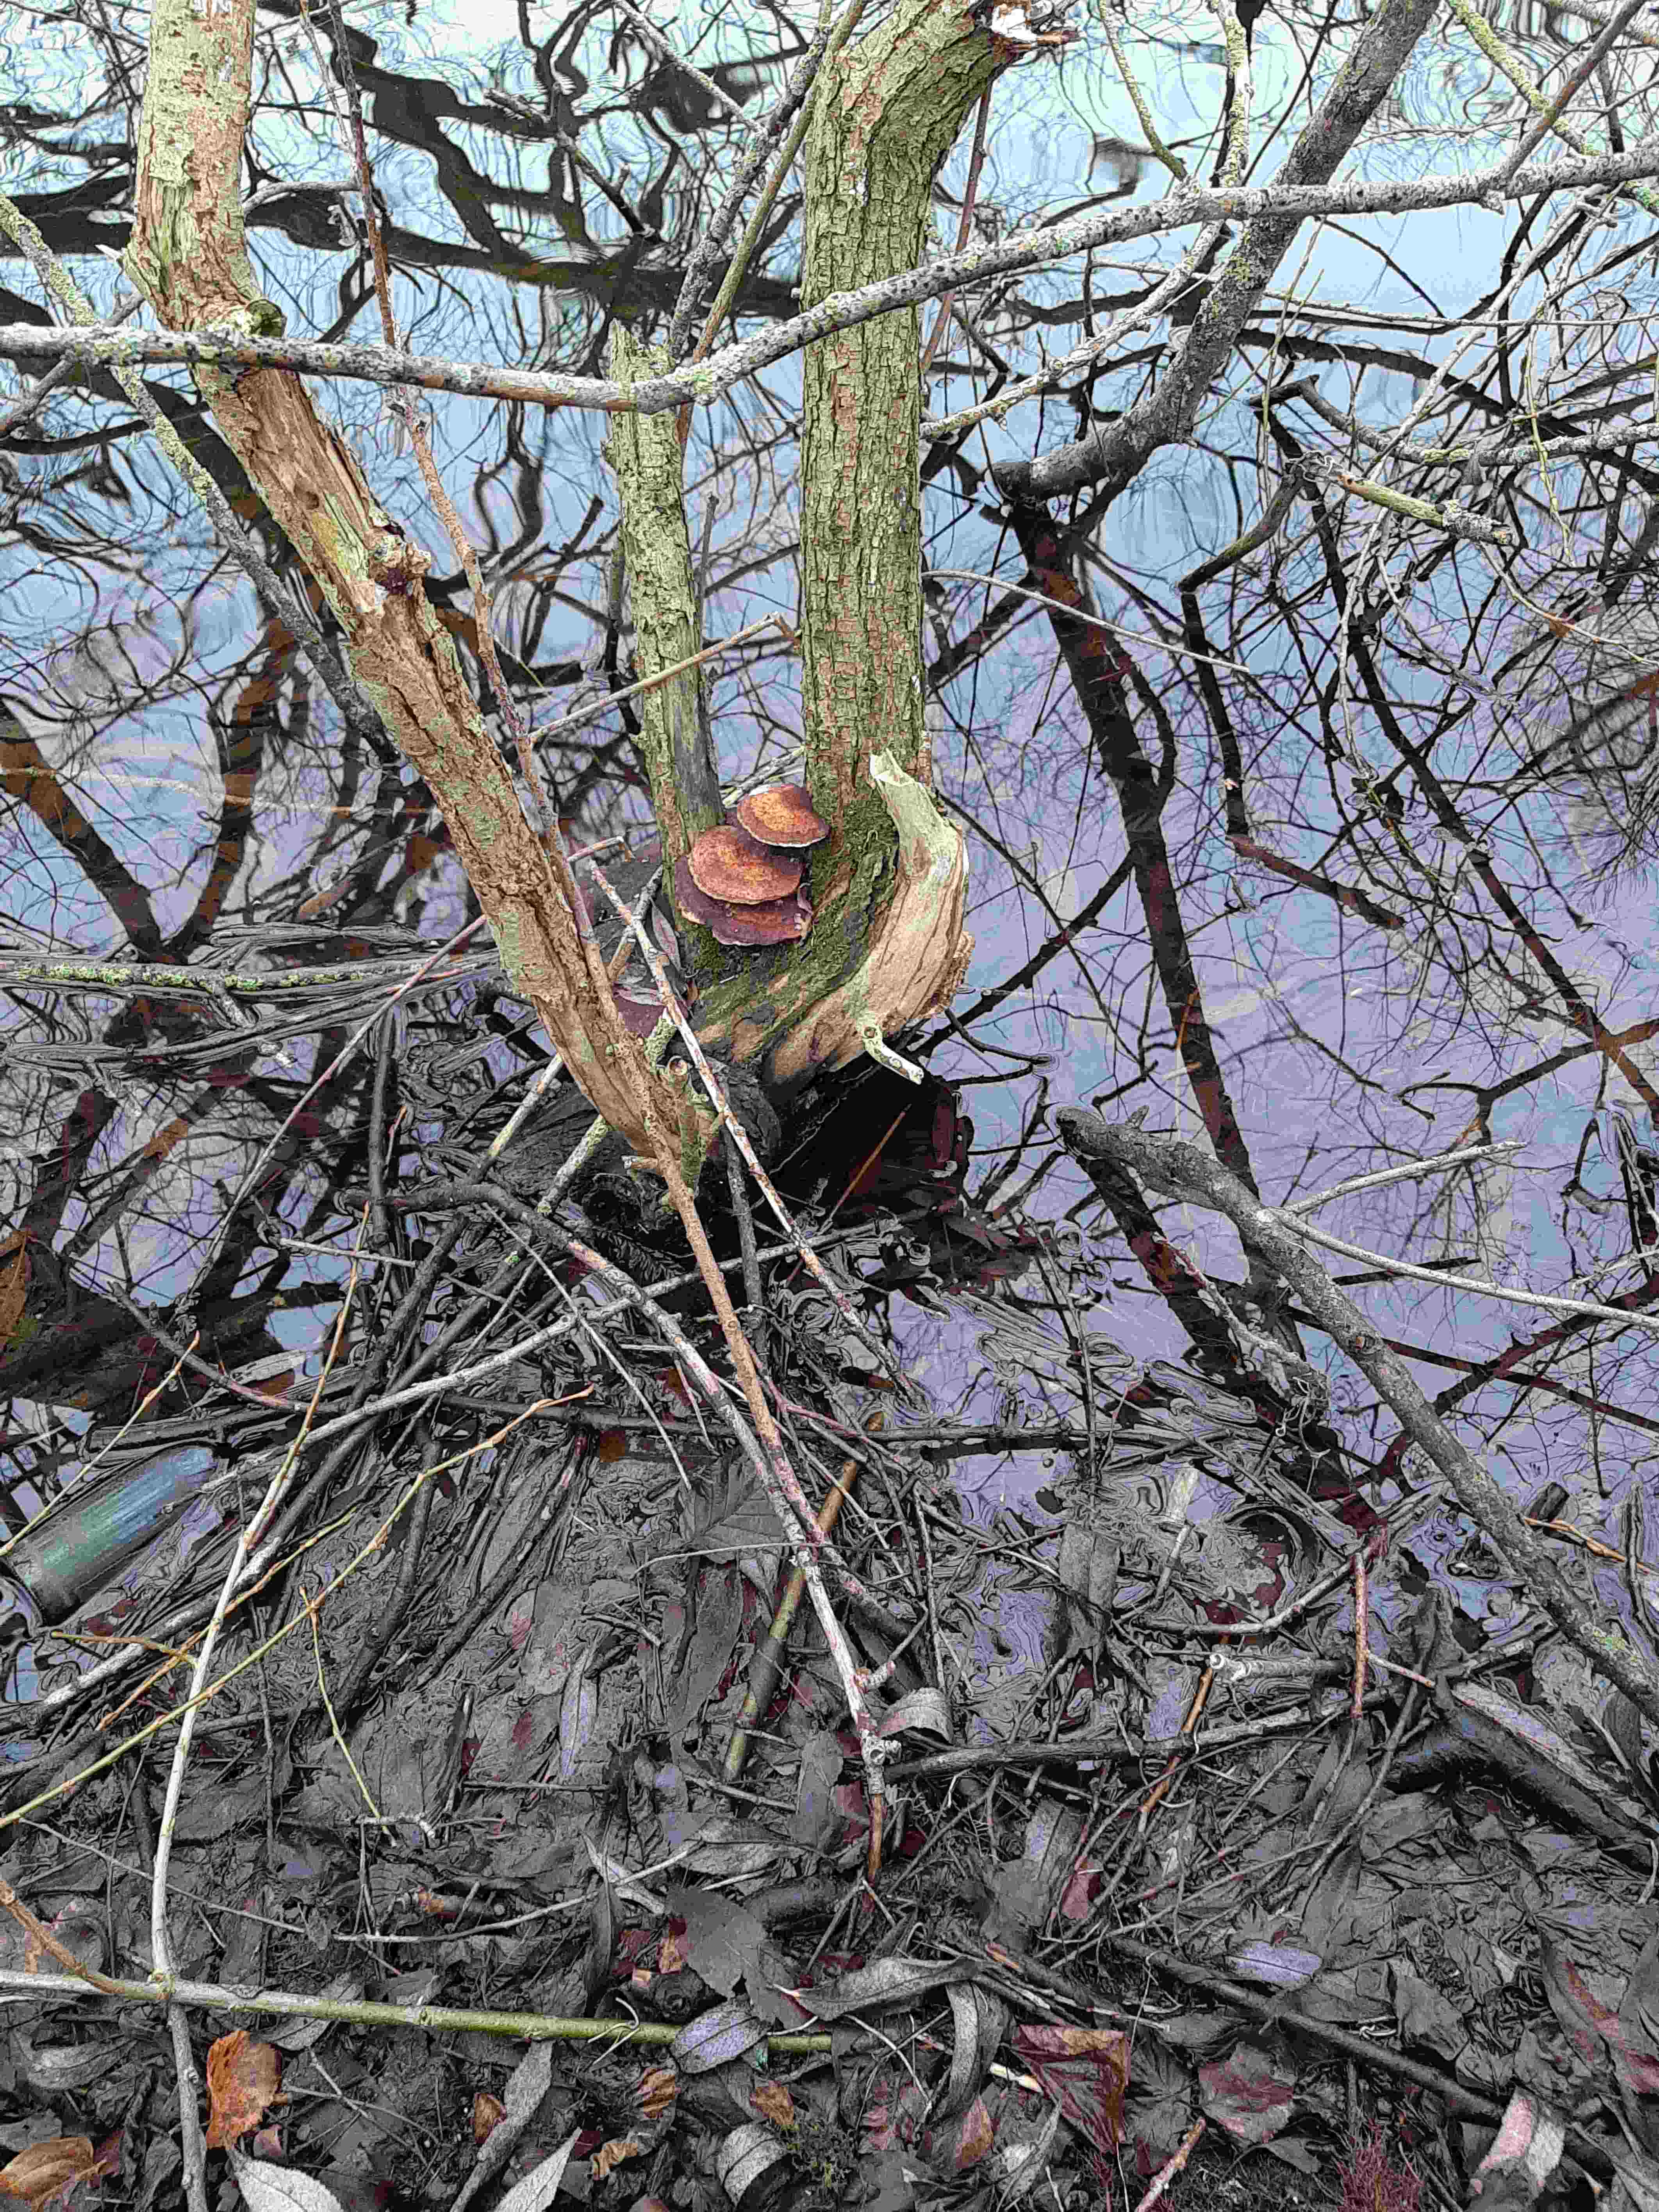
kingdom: Fungi
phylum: Basidiomycota
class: Agaricomycetes
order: Polyporales
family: Polyporaceae
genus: Daedaleopsis
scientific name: Daedaleopsis confragosa
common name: rødmende læderporesvamp
